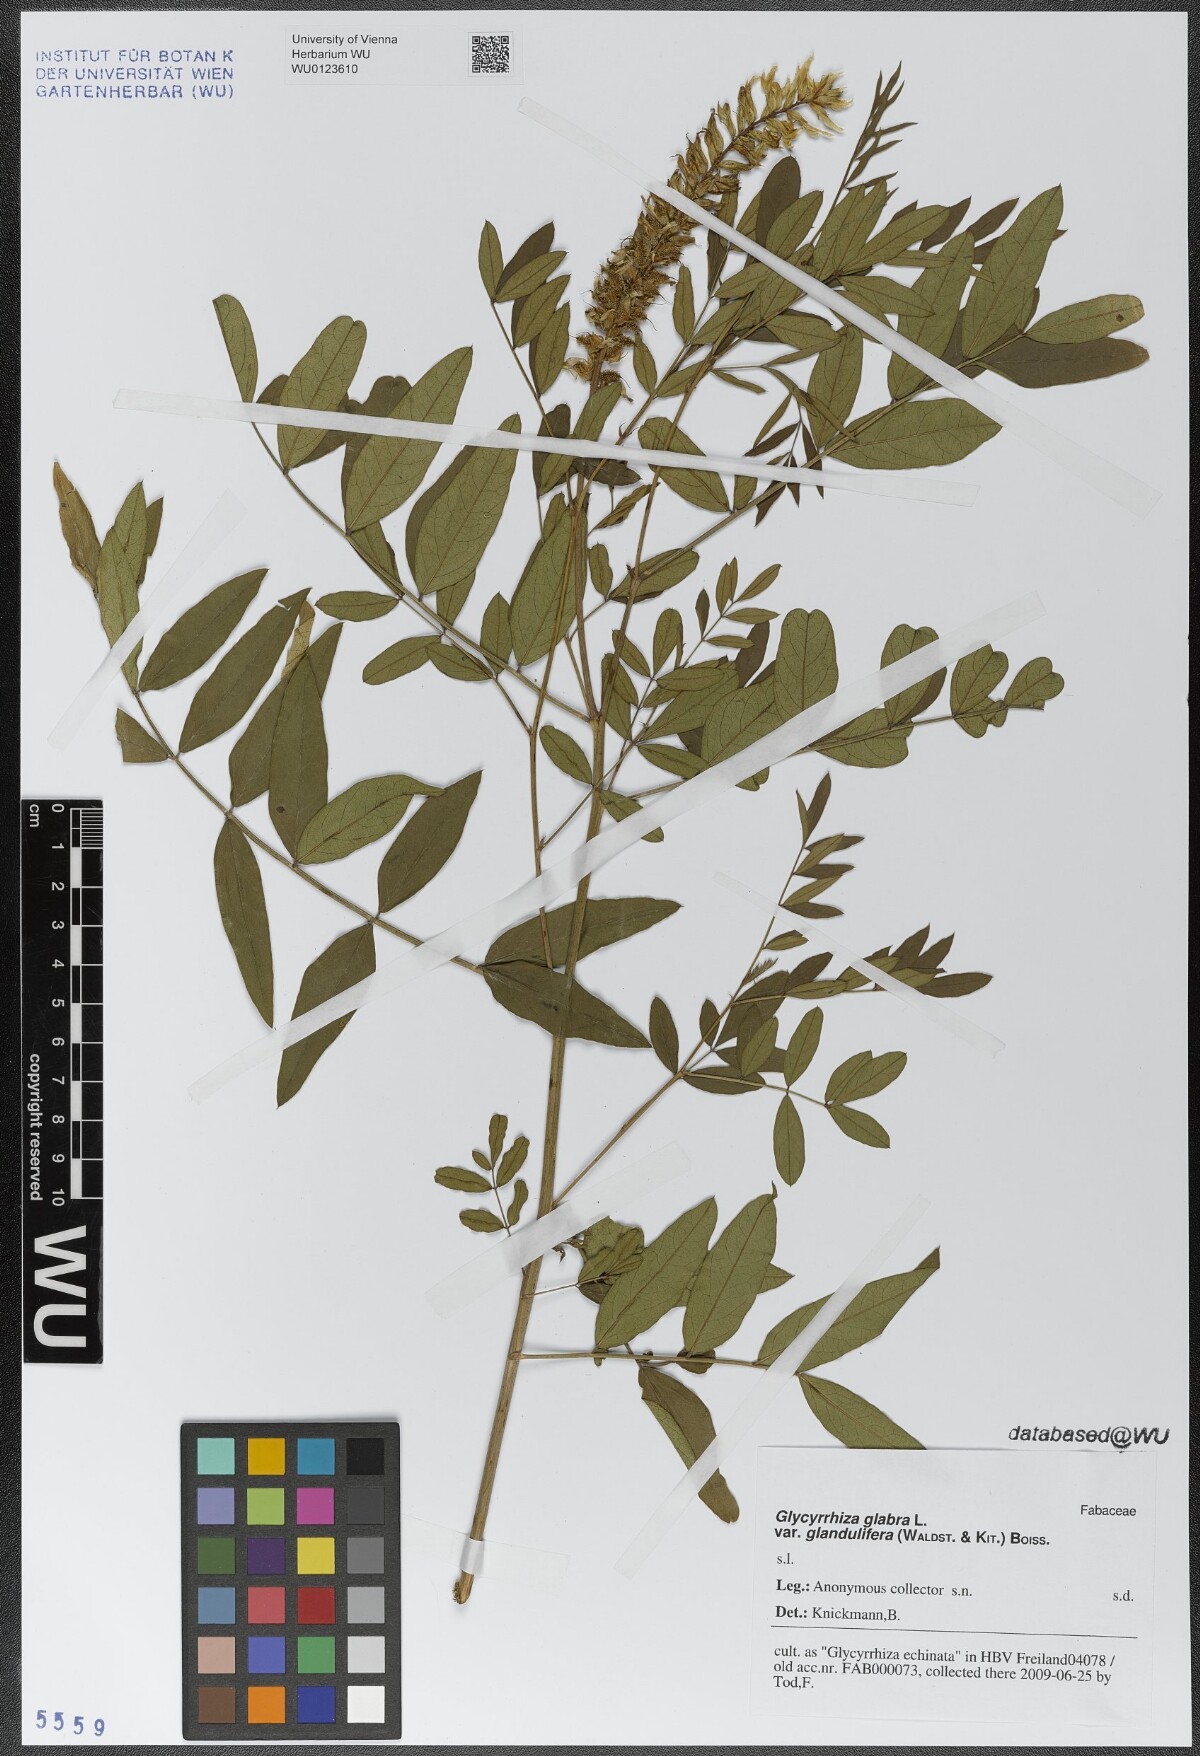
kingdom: Plantae
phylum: Tracheophyta
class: Magnoliopsida
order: Fabales
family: Fabaceae
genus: Glycyrrhiza
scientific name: Glycyrrhiza glabra
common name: Liquorice
